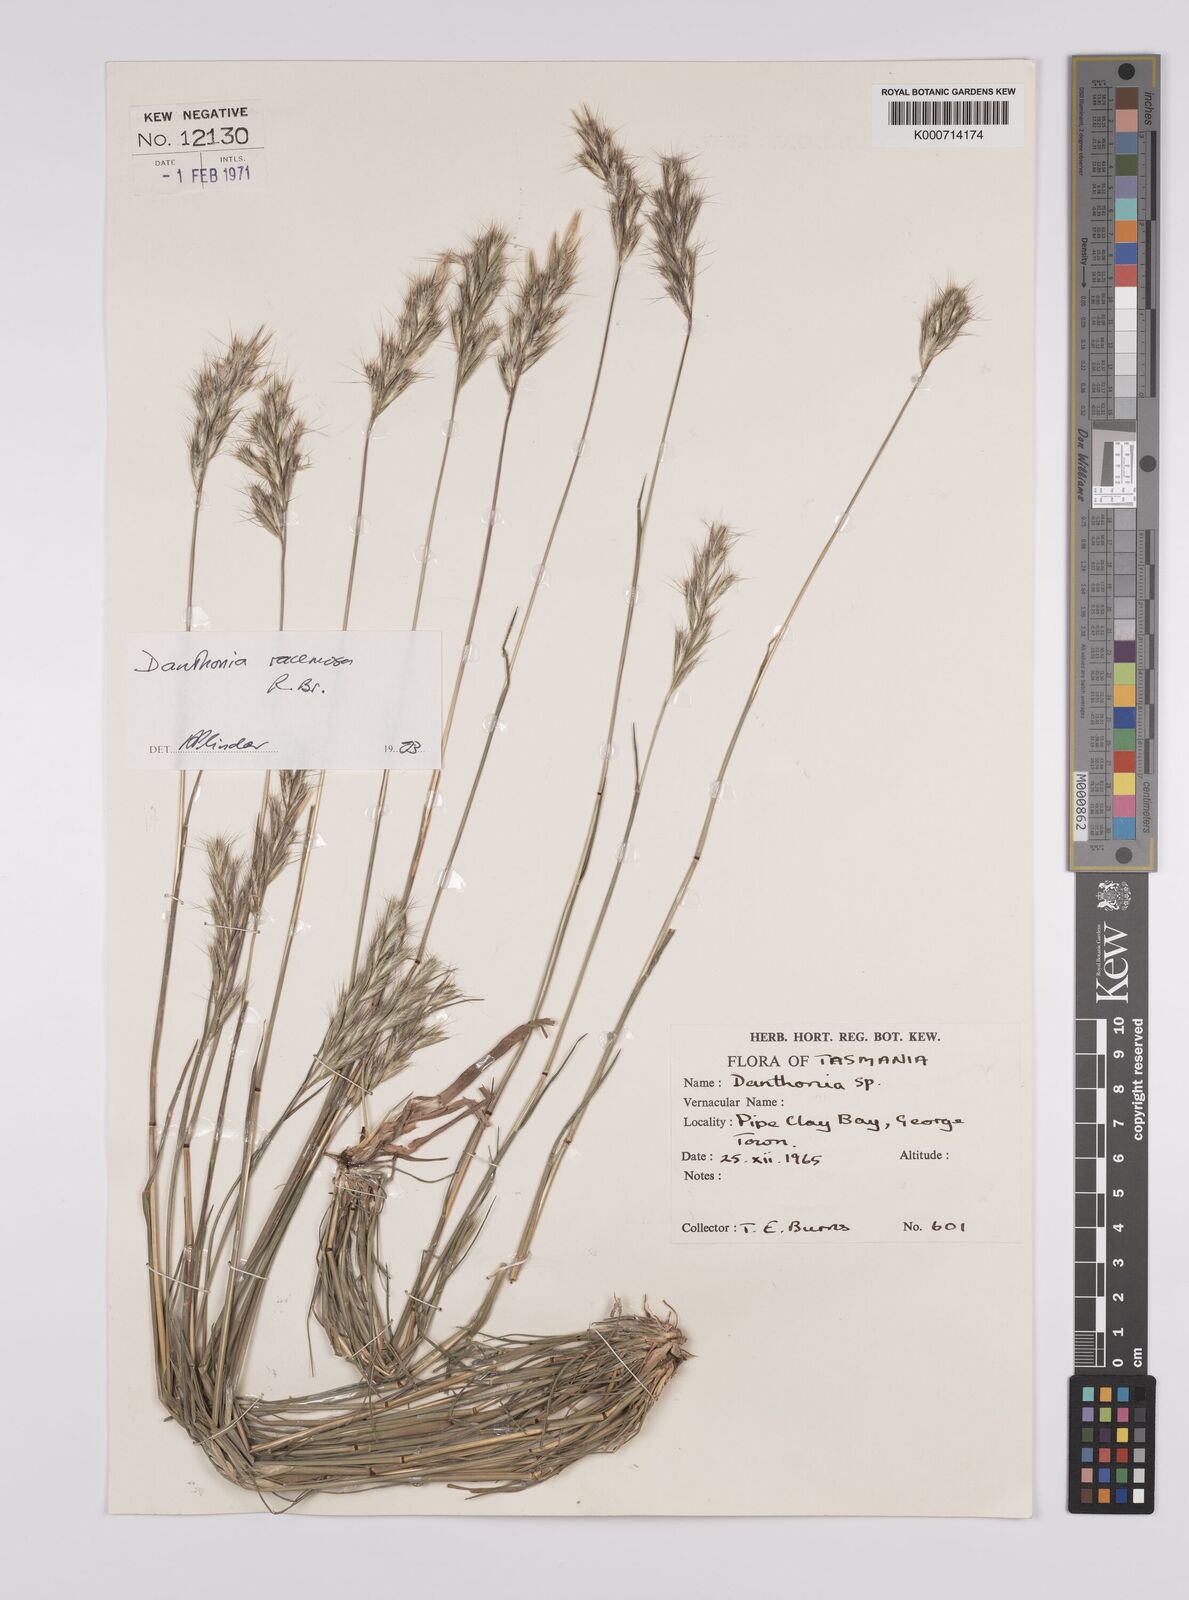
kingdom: Plantae
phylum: Tracheophyta
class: Liliopsida
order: Poales
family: Poaceae
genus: Rytidosperma
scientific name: Rytidosperma
